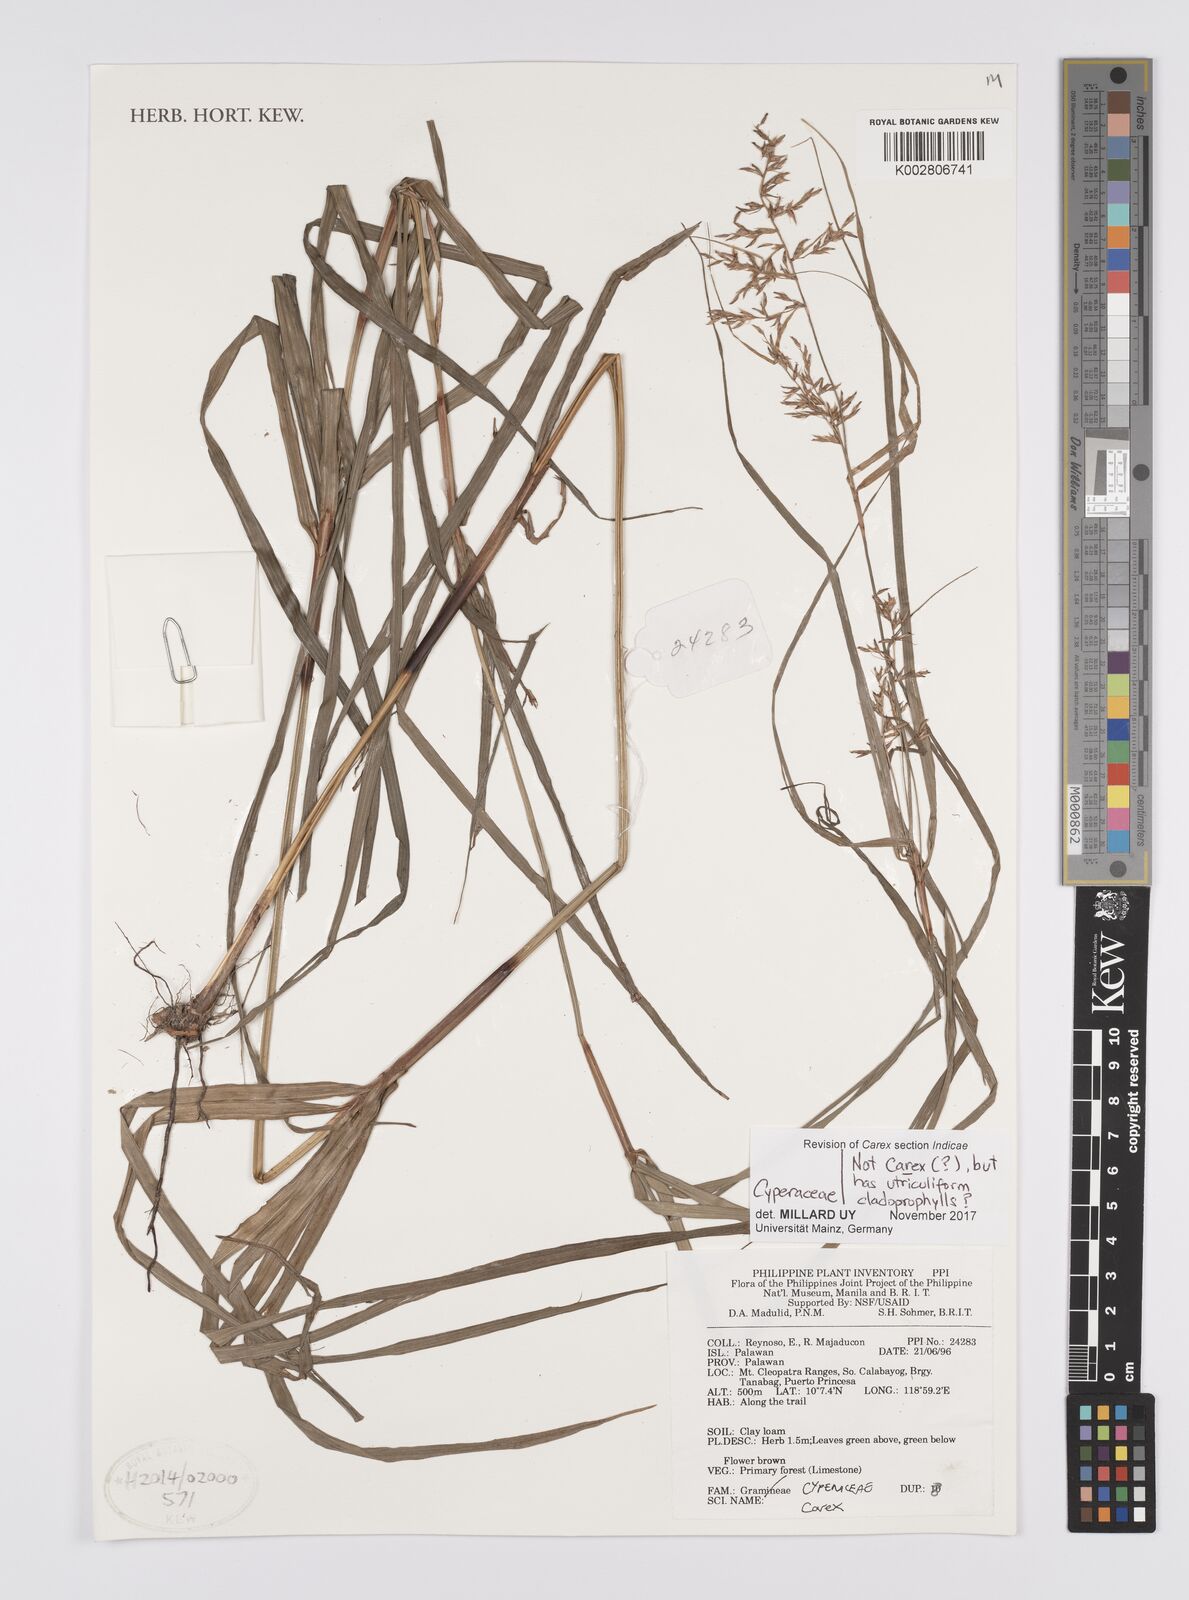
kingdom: Plantae
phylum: Tracheophyta
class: Liliopsida
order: Poales
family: Cyperaceae
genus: Carex
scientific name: Carex
